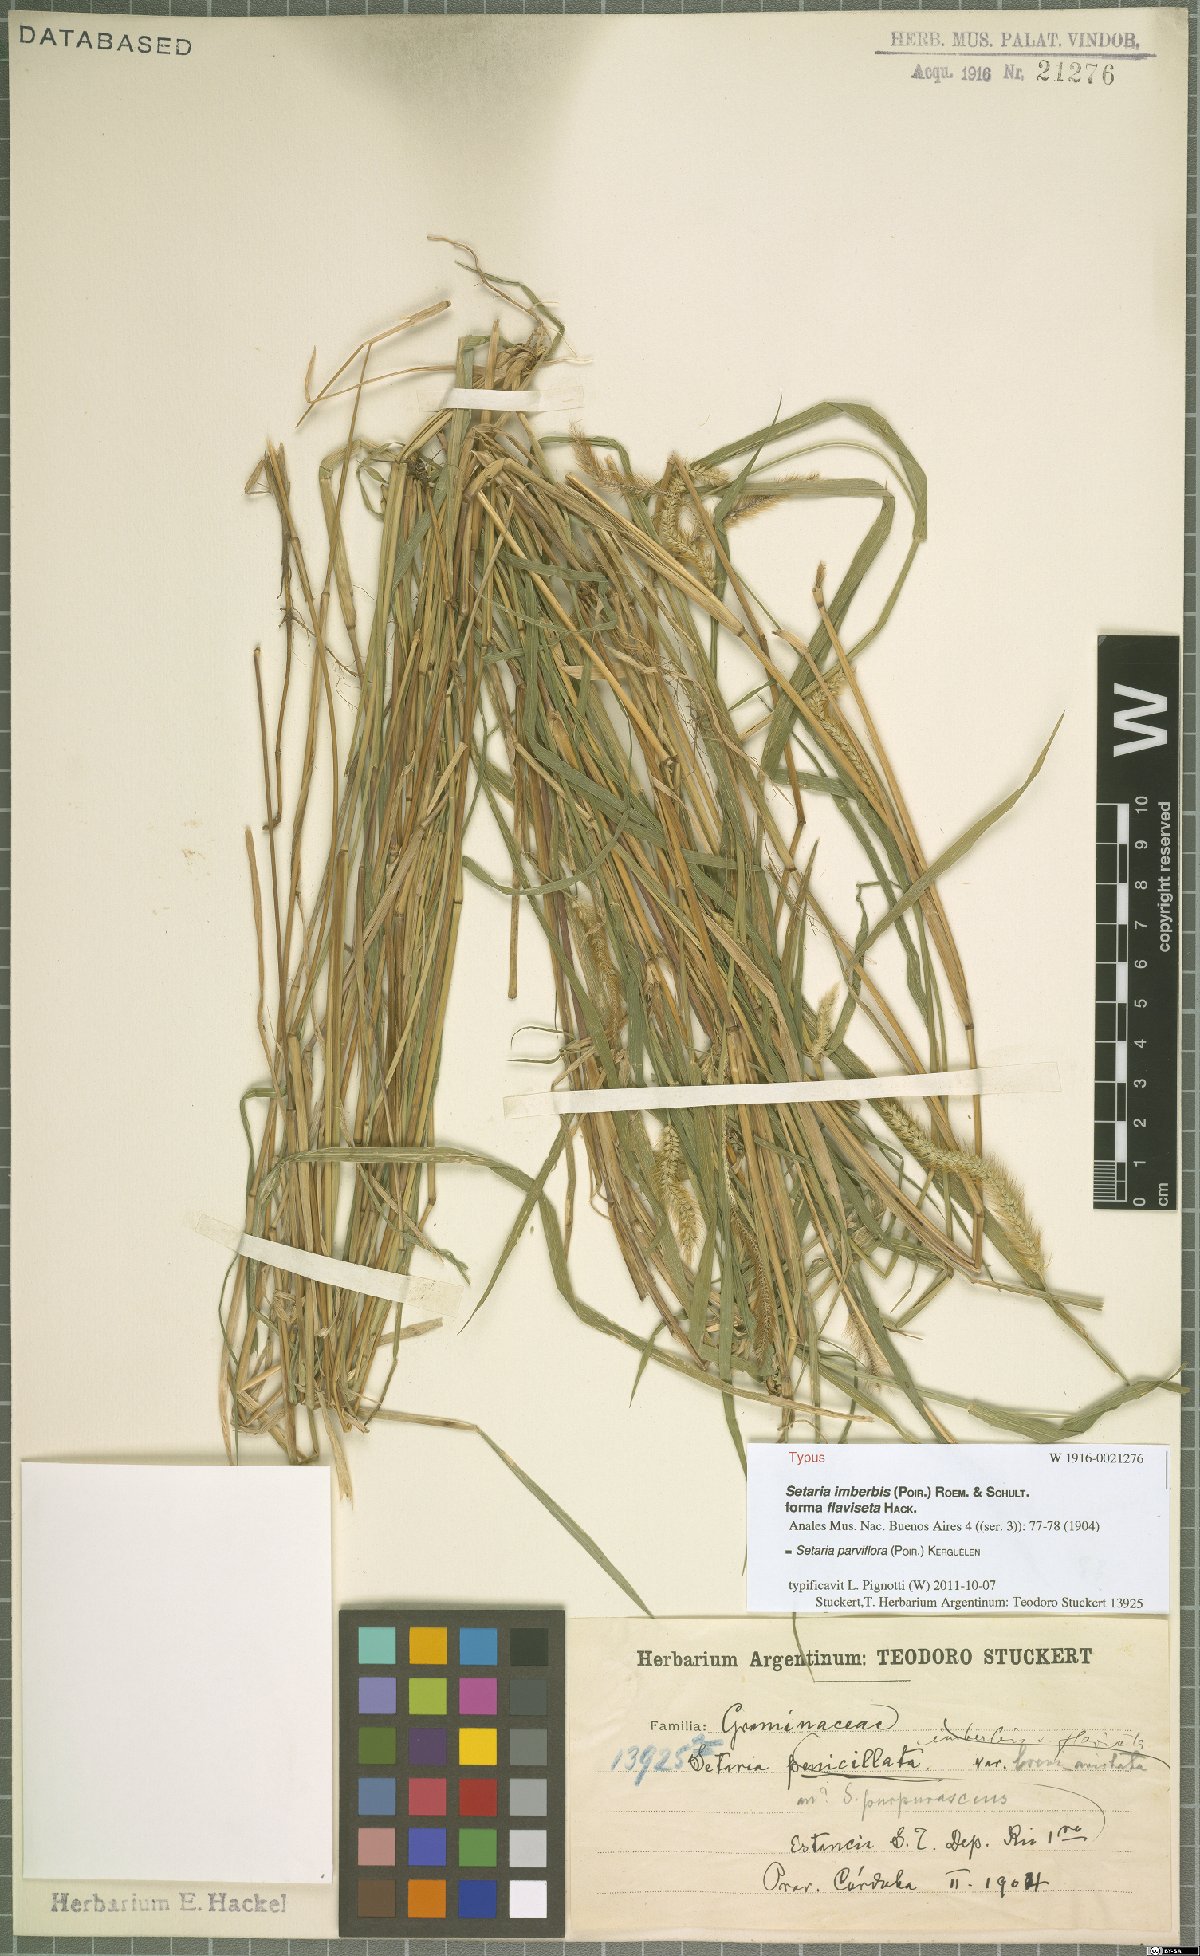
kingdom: Plantae
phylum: Tracheophyta
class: Liliopsida
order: Poales
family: Poaceae
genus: Setaria
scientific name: Setaria parviflora
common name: Knotroot bristle-grass
